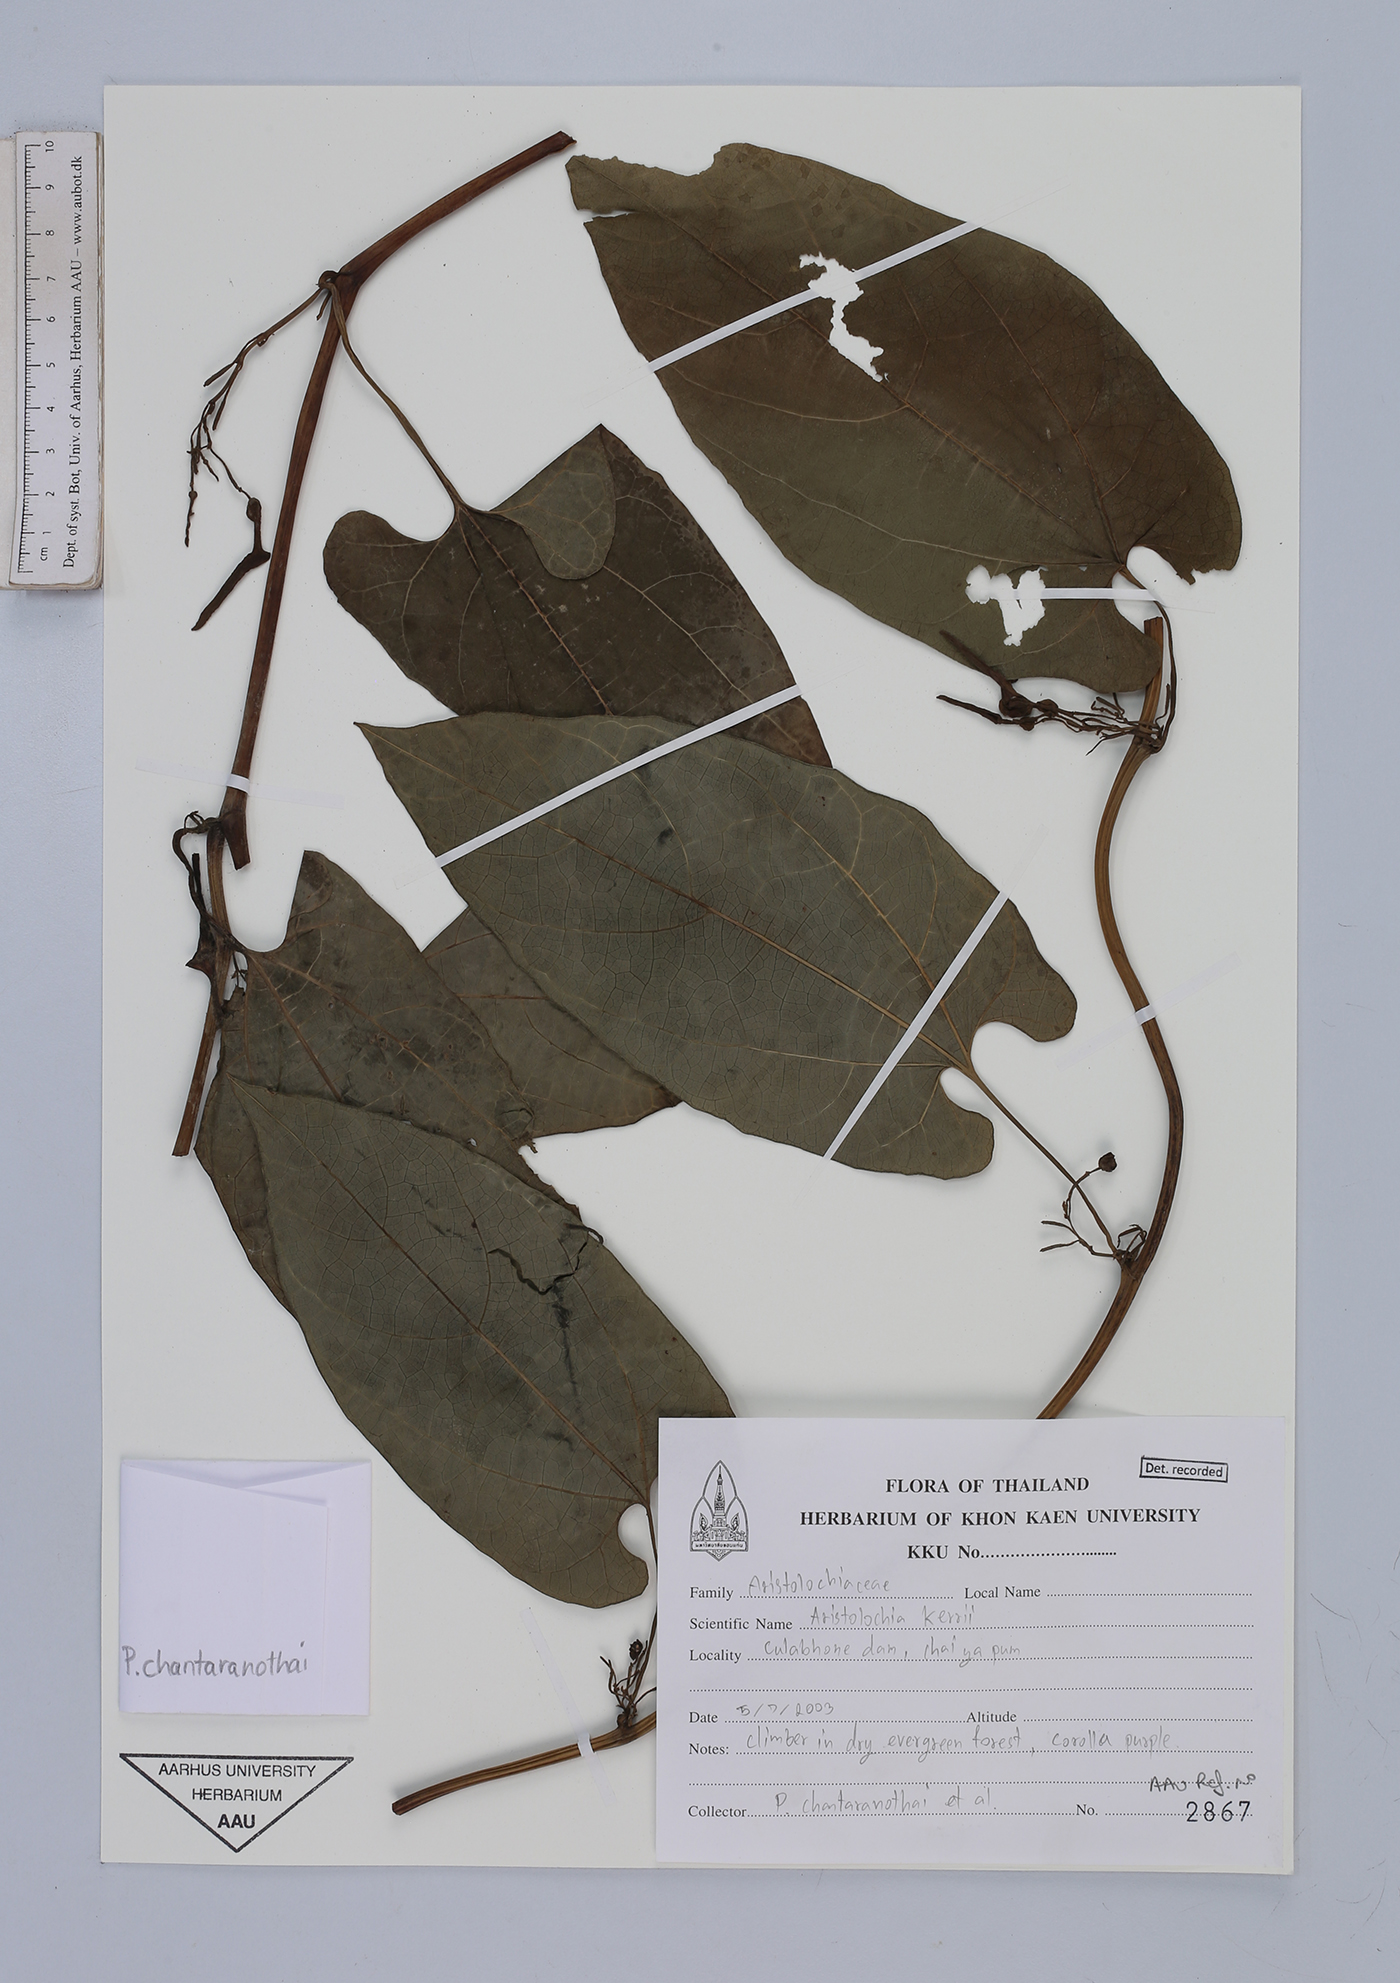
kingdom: Plantae
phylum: Tracheophyta
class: Magnoliopsida
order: Piperales
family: Aristolochiaceae
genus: Aristolochia
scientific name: Aristolochia cambodiana
